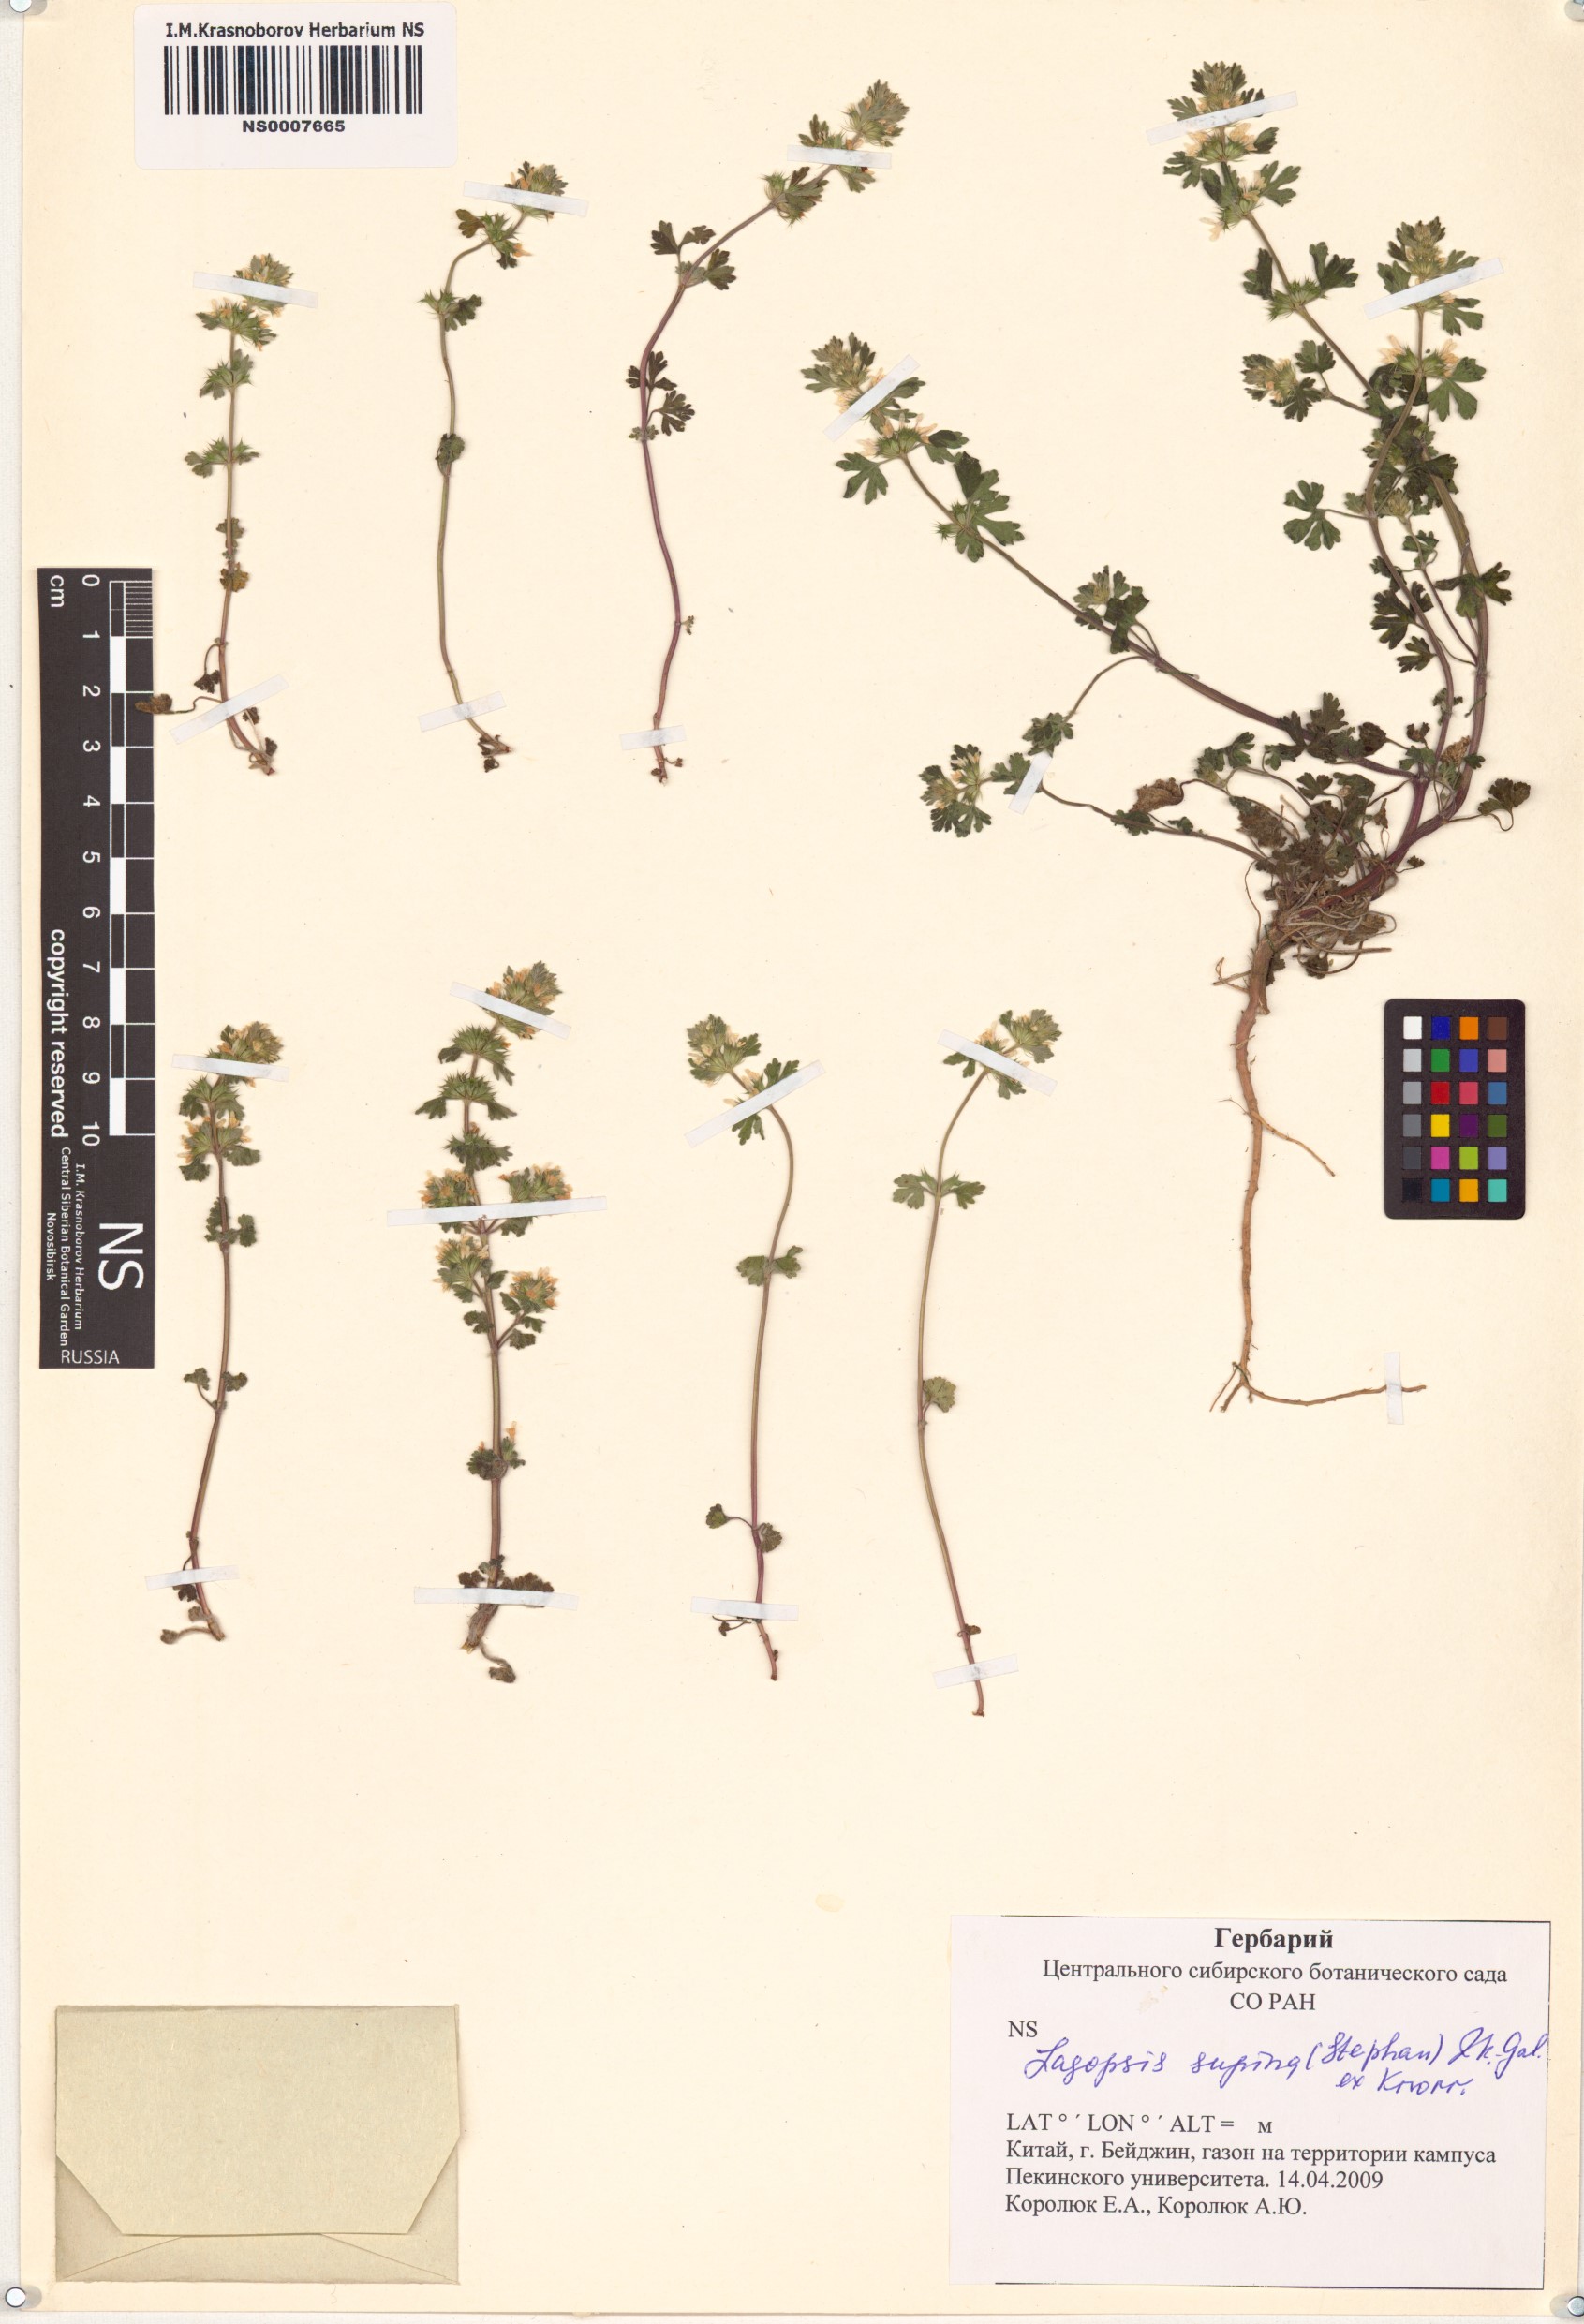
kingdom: Plantae
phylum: Tracheophyta
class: Magnoliopsida
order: Lamiales
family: Lamiaceae
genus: Lagopsis
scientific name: Lagopsis supina
